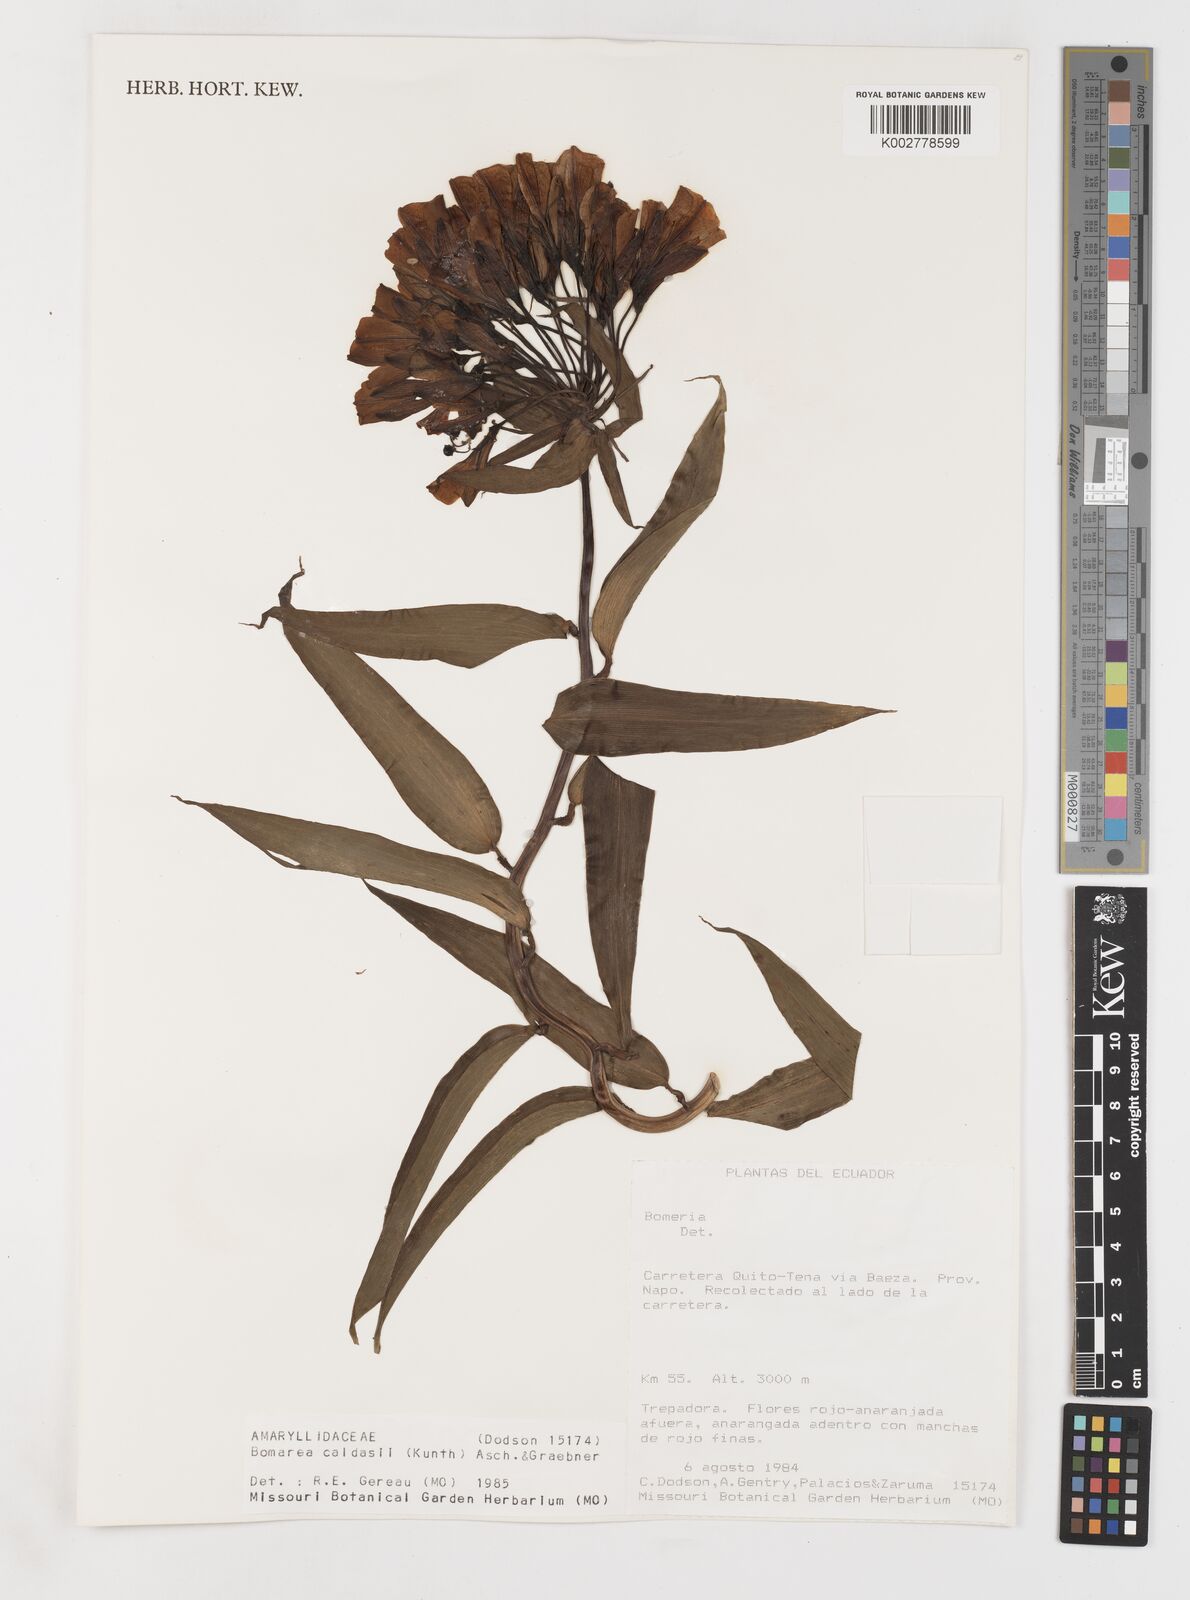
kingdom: Plantae
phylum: Tracheophyta
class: Liliopsida
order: Liliales
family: Alstroemeriaceae
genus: Bomarea
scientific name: Bomarea multiflora
